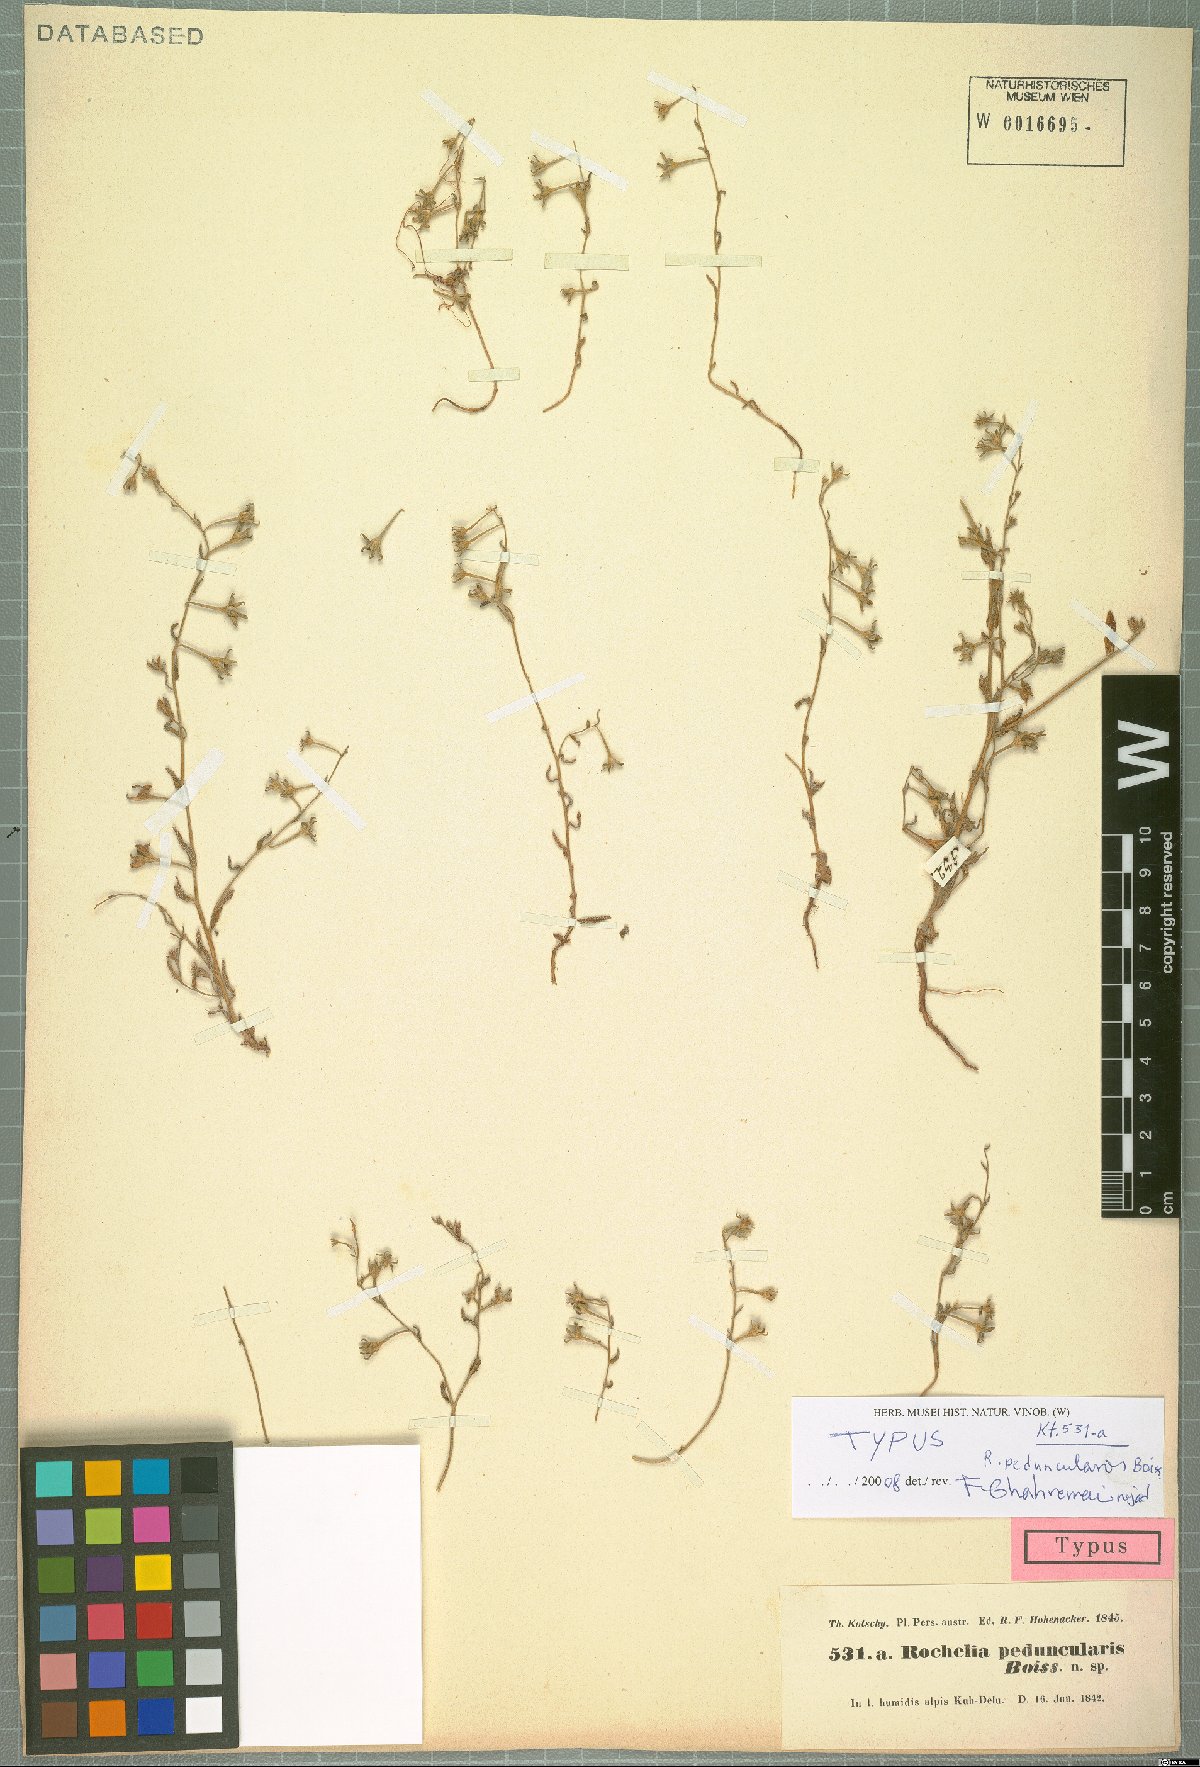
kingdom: Plantae
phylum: Tracheophyta
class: Magnoliopsida
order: Boraginales
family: Boraginaceae
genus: Rochelia
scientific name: Rochelia peduncularis
